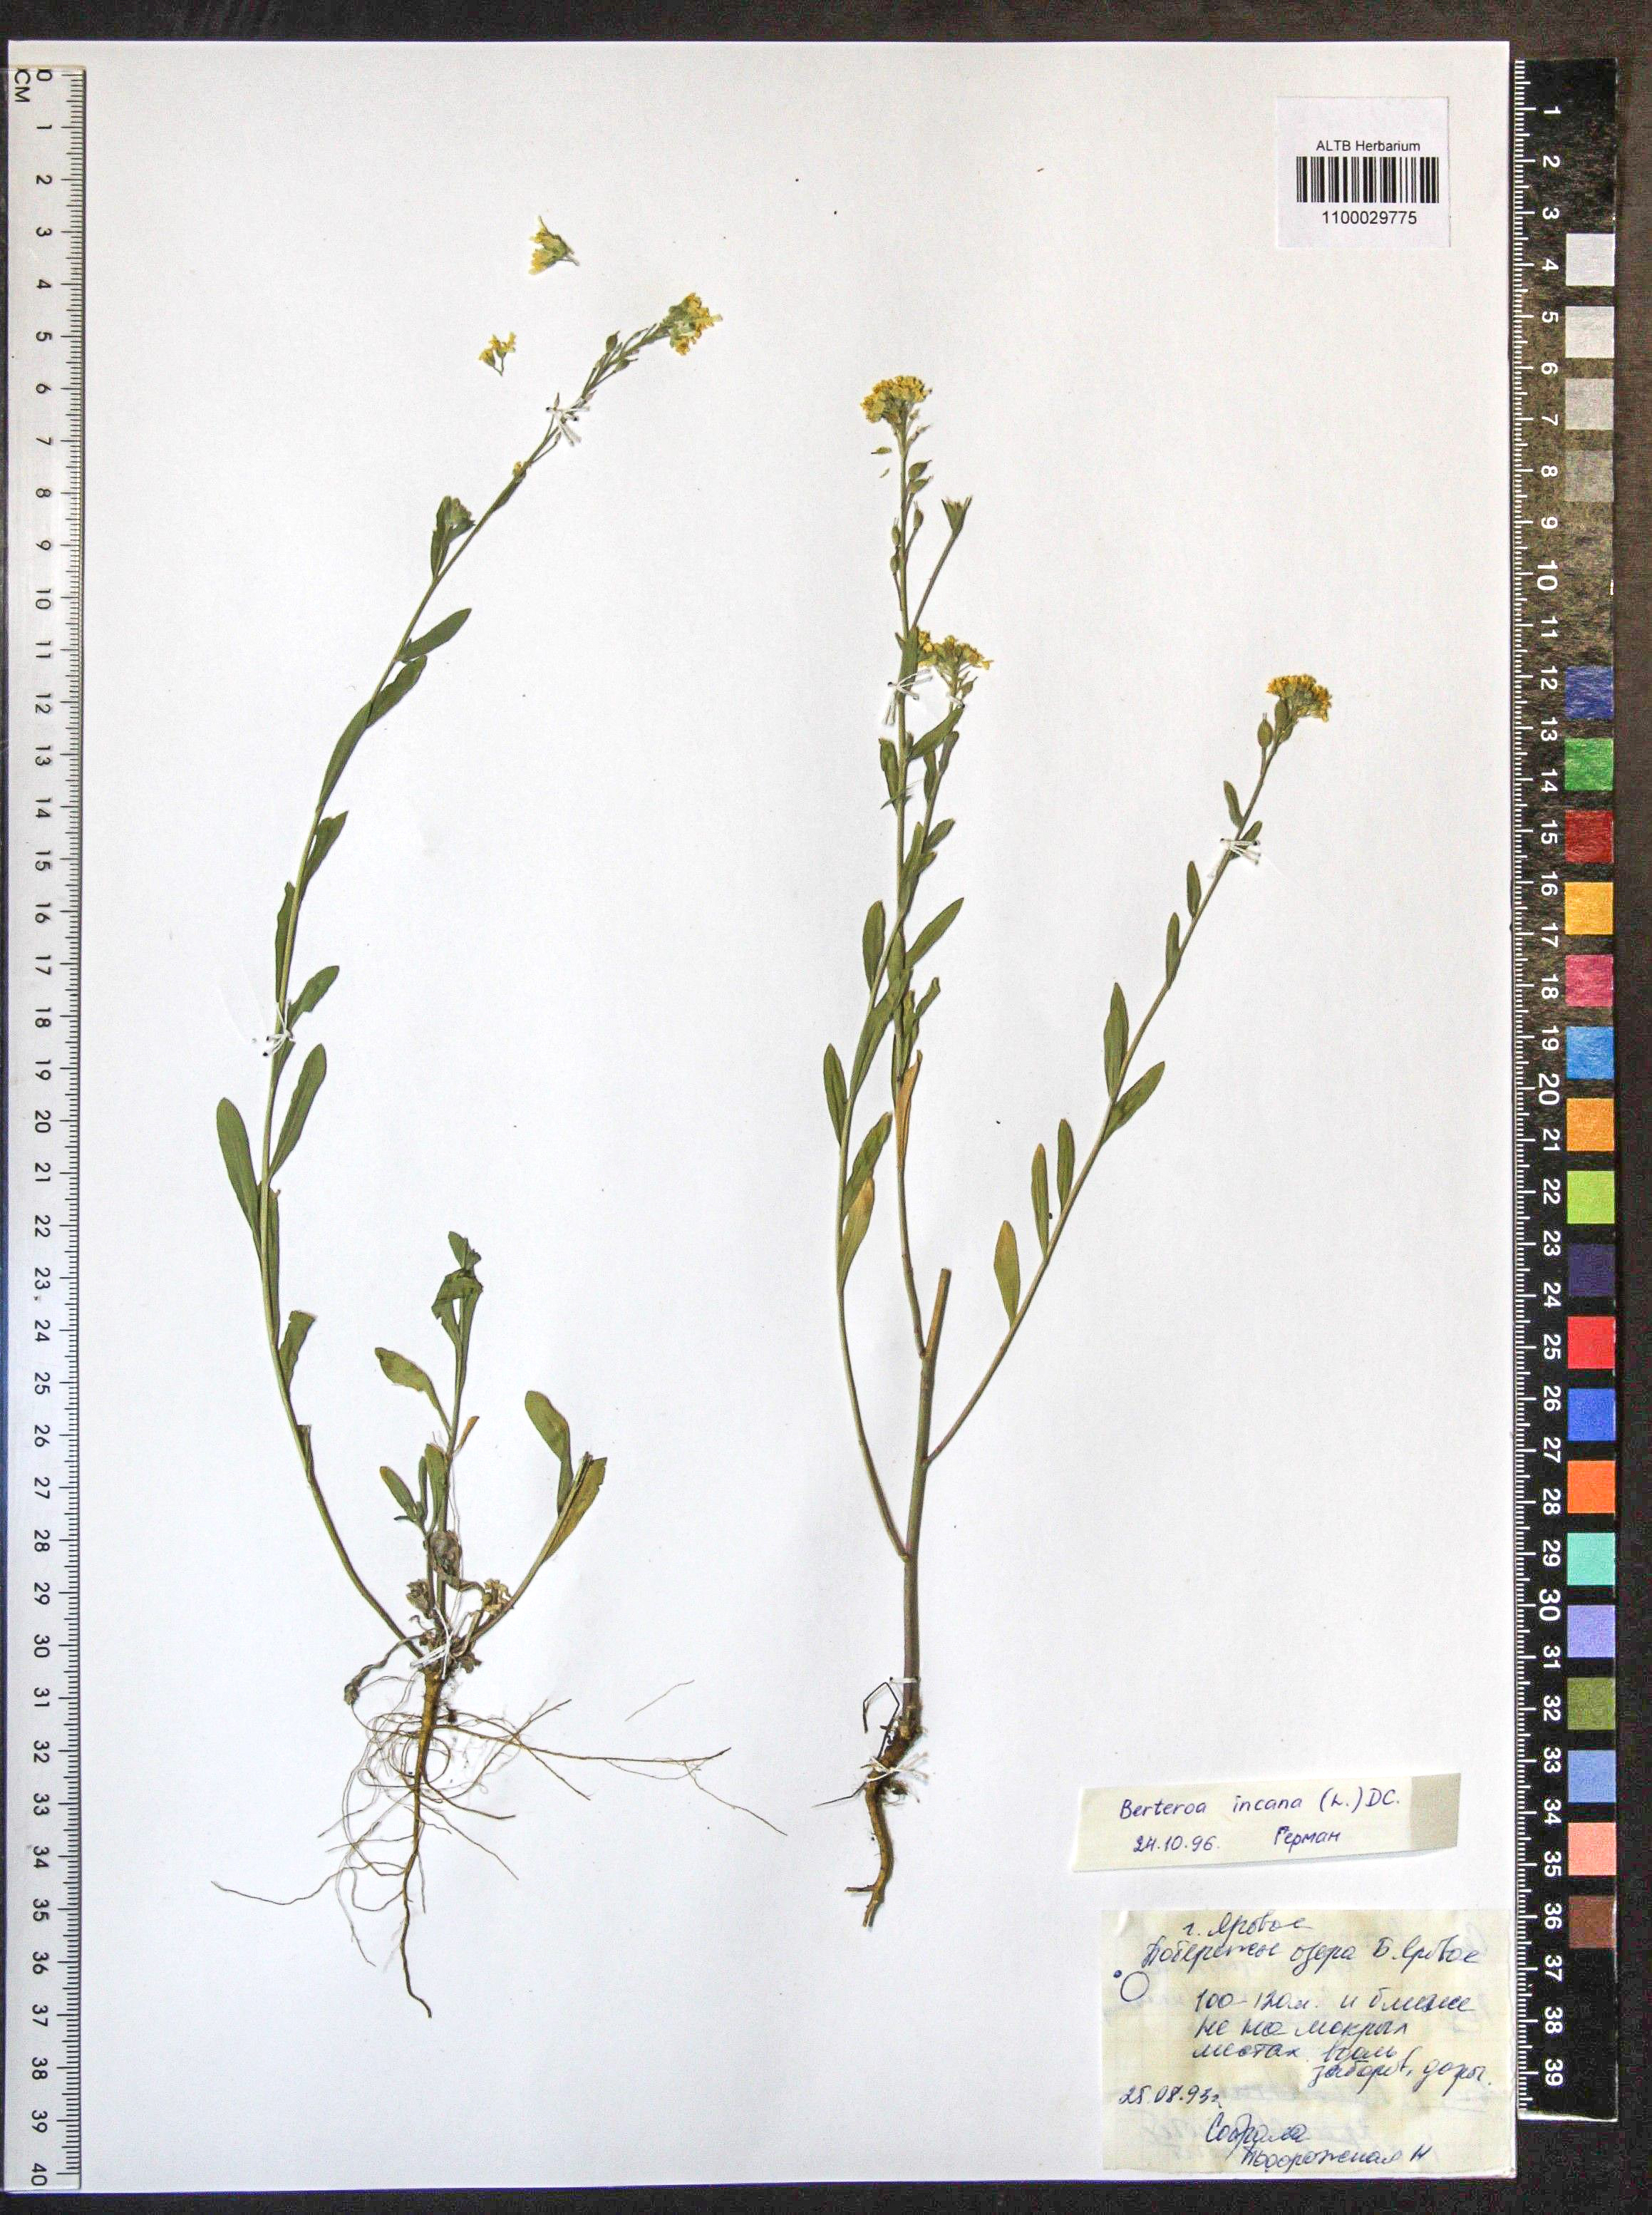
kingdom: Plantae
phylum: Tracheophyta
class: Magnoliopsida
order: Brassicales
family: Brassicaceae
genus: Berteroa
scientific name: Berteroa incana
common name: Hoary alison
